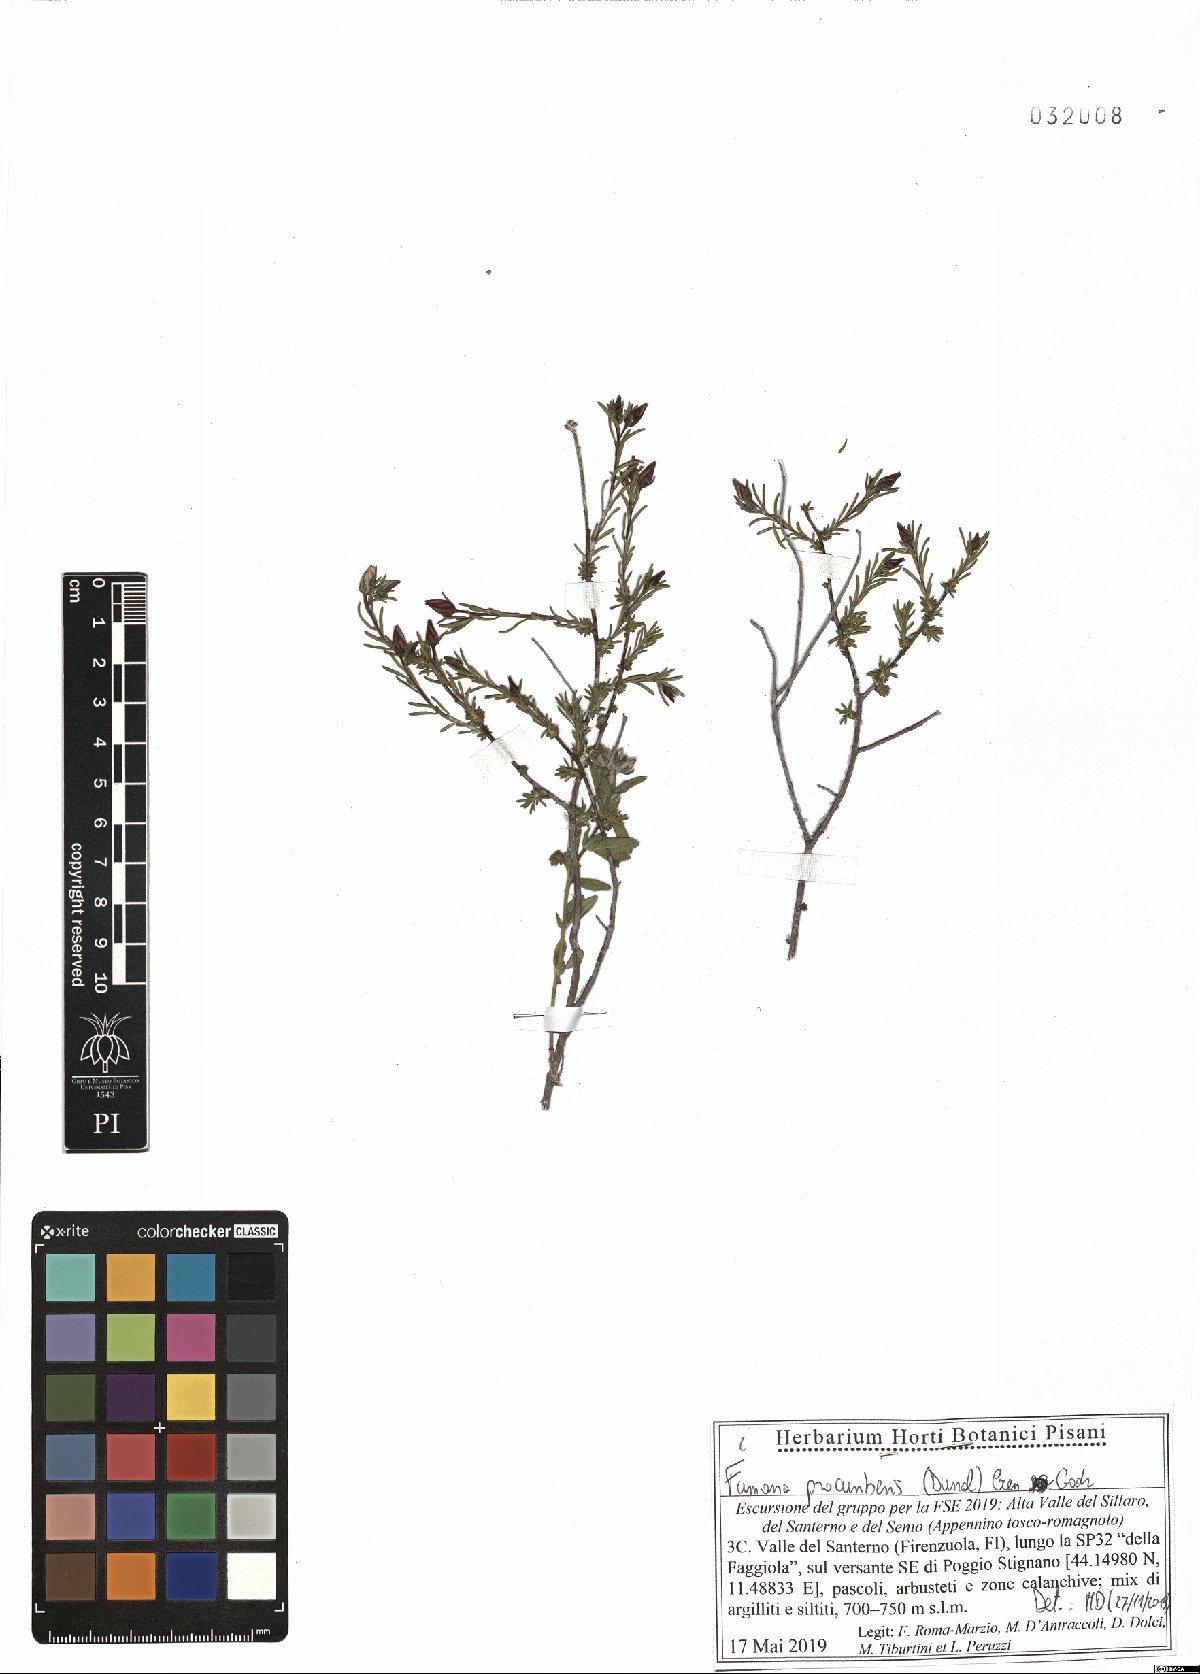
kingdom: Plantae
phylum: Tracheophyta
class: Magnoliopsida
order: Malvales
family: Cistaceae
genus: Fumana
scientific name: Fumana procumbens
